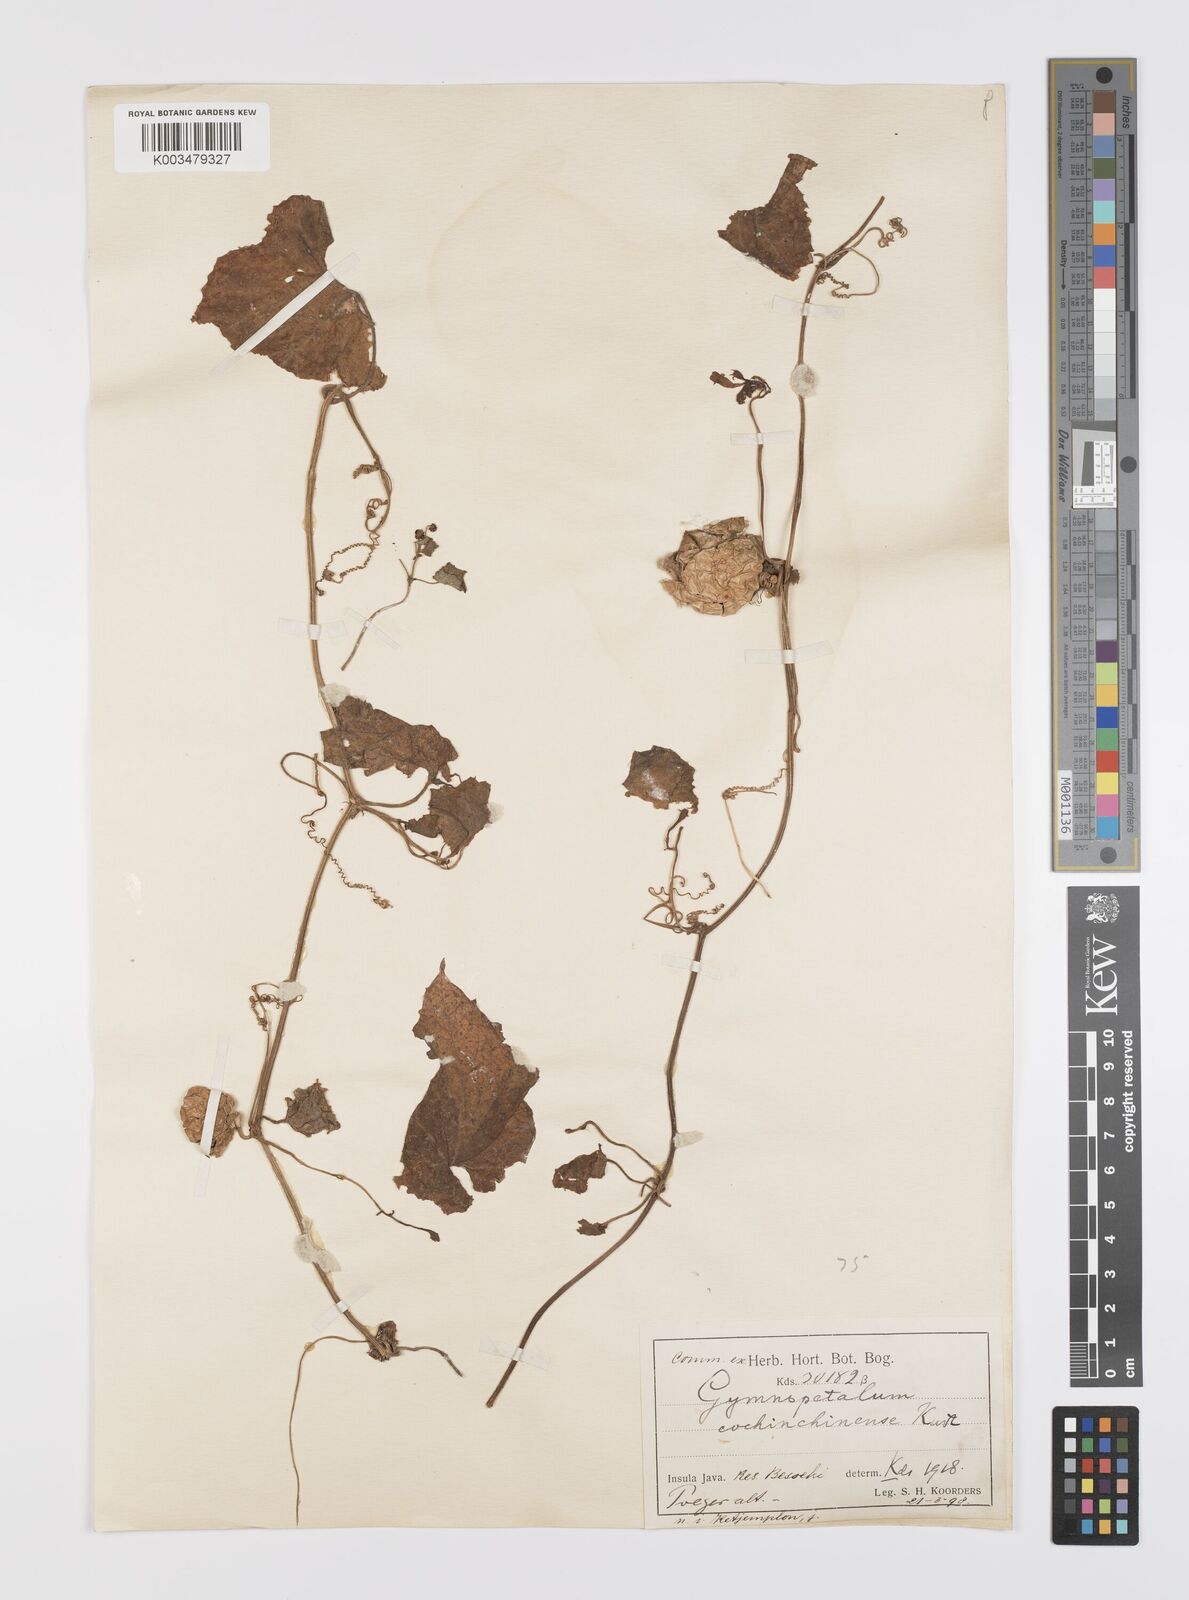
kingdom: Plantae
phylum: Tracheophyta
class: Magnoliopsida
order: Cucurbitales
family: Cucurbitaceae
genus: Trichosanthes
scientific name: Trichosanthes cucumerina
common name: Snakegourd
